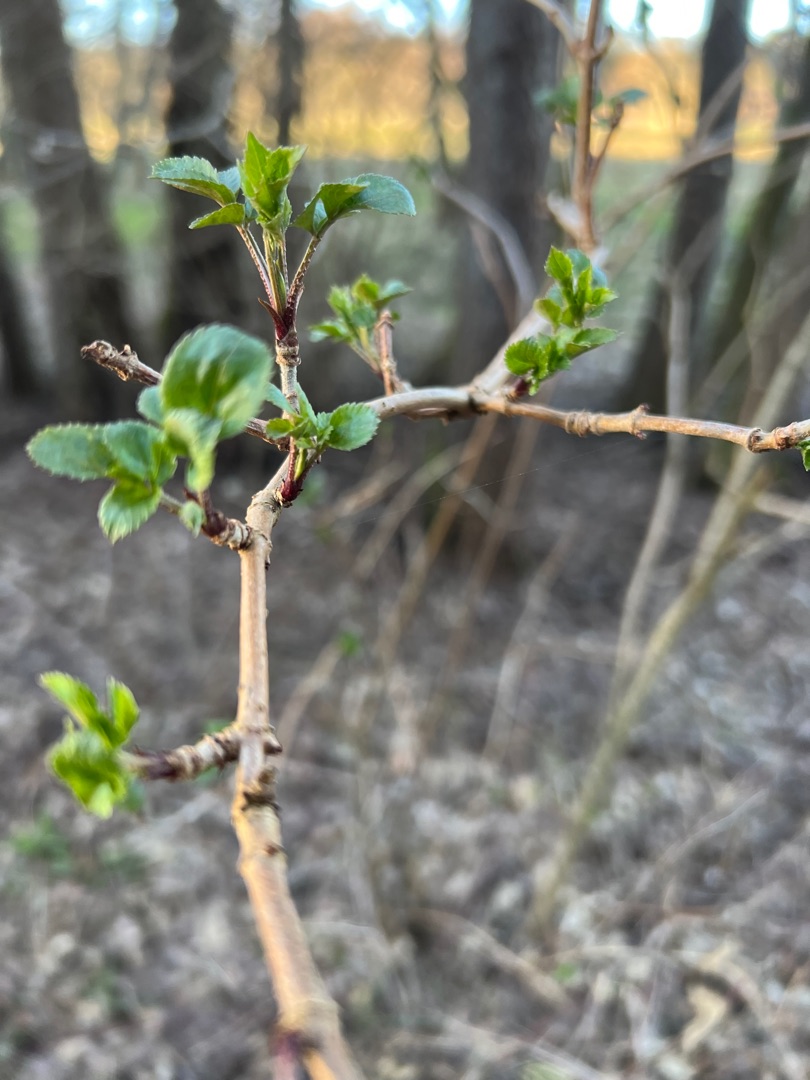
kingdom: Plantae
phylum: Tracheophyta
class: Magnoliopsida
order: Dipsacales
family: Viburnaceae
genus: Sambucus
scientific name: Sambucus nigra
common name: Almindelig hyld
